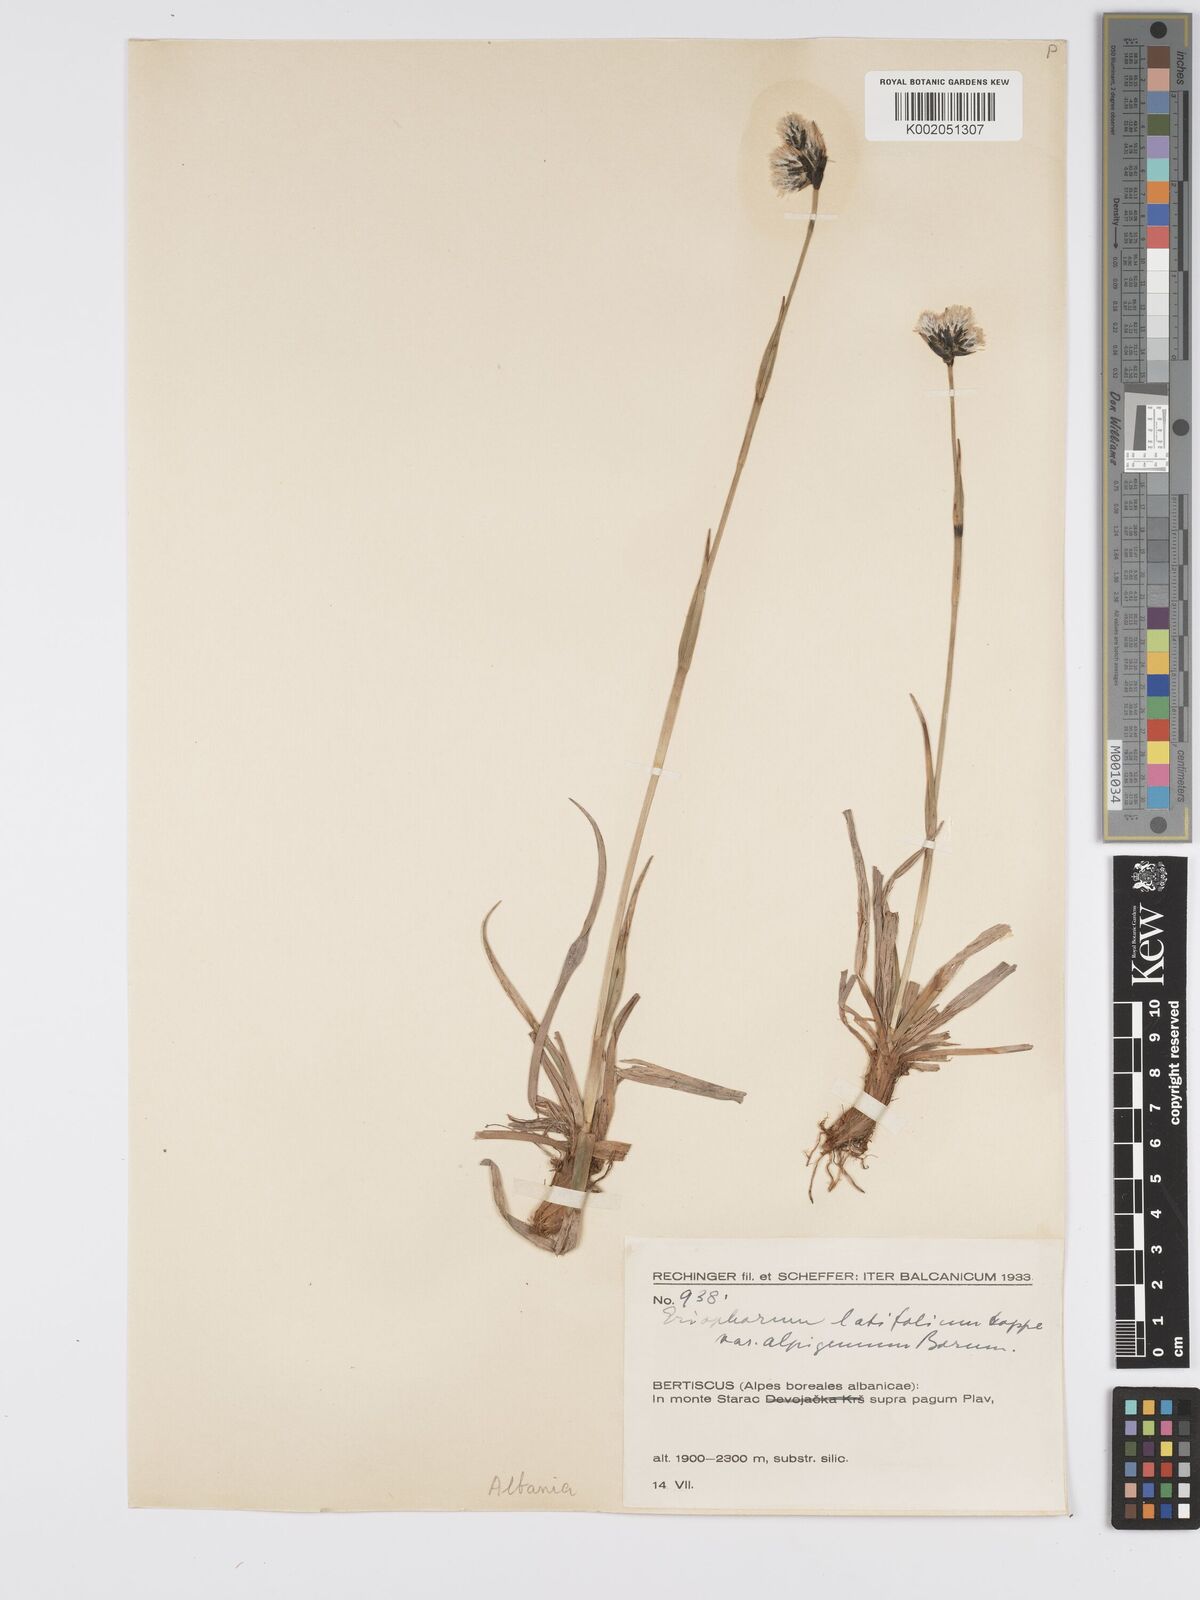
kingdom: Plantae
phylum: Tracheophyta
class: Liliopsida
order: Poales
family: Cyperaceae
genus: Eriophorum
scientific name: Eriophorum latifolium
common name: Broad-leaved cottongrass
